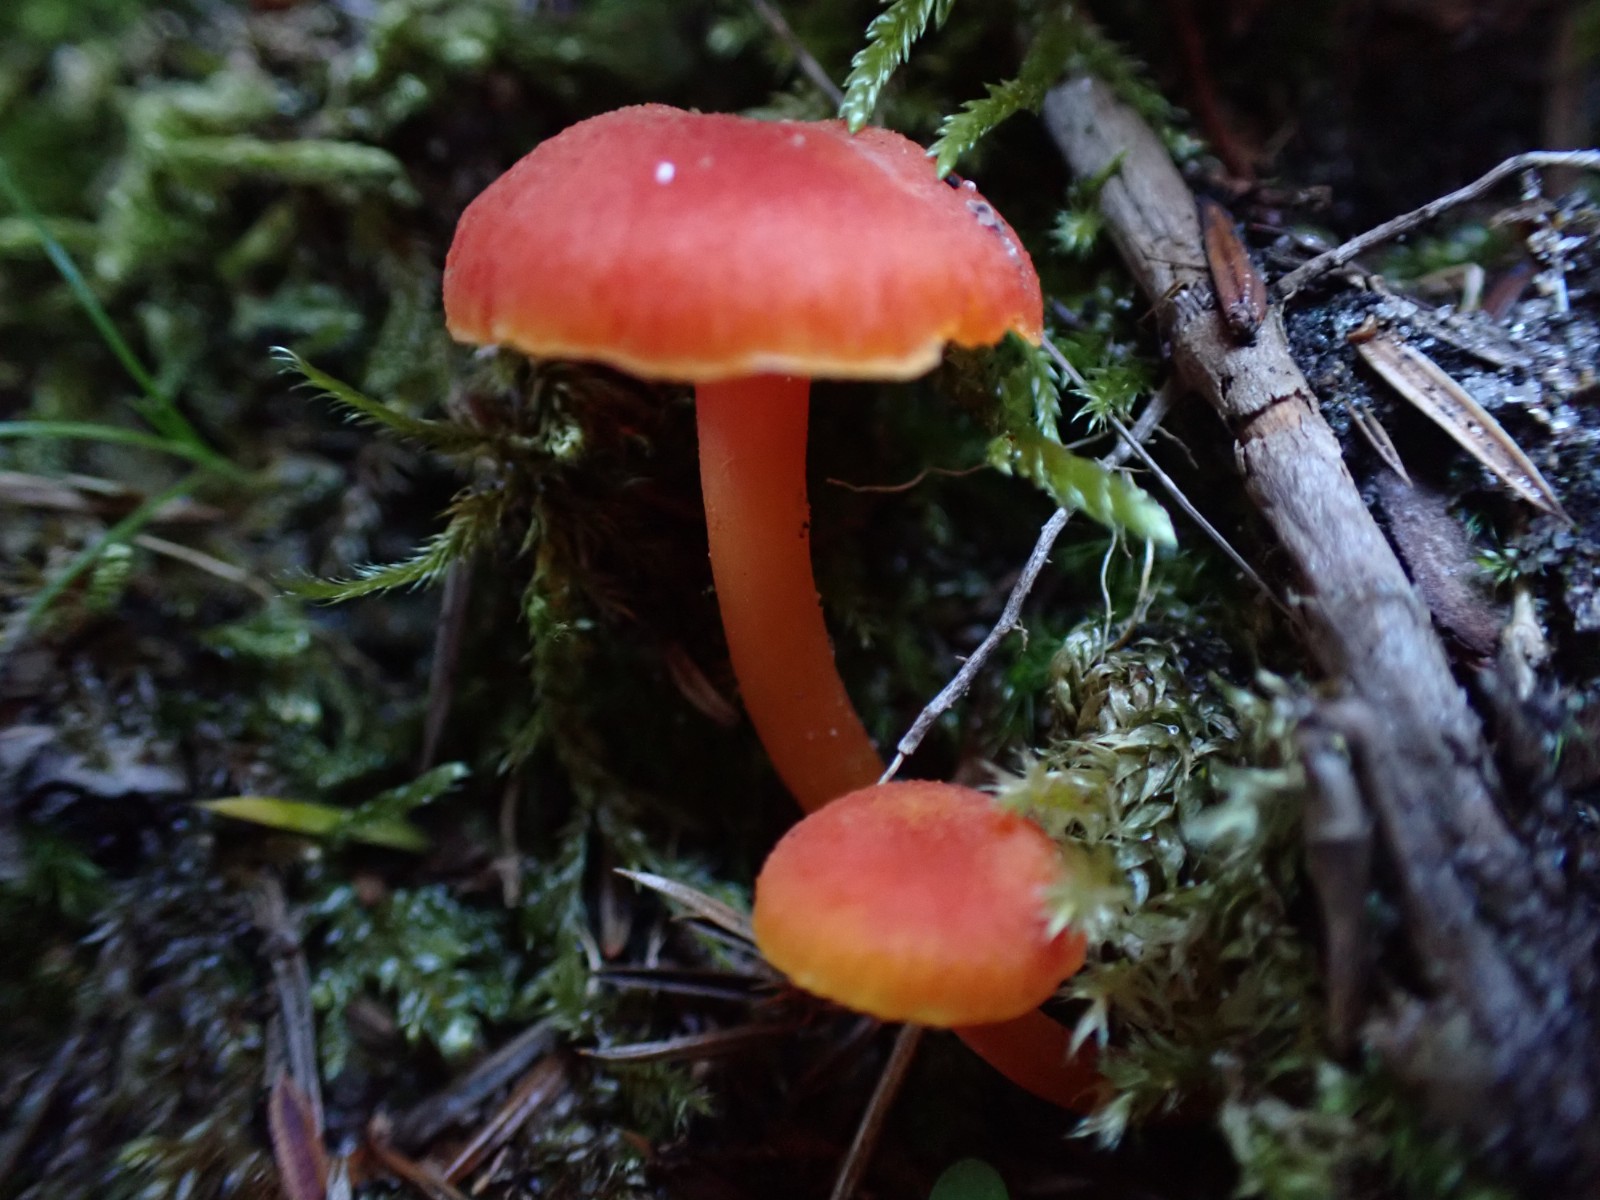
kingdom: Fungi
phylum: Basidiomycota
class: Agaricomycetes
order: Agaricales
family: Hygrophoraceae
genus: Hygrocybe
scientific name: Hygrocybe miniata
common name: mønje-vokshat
